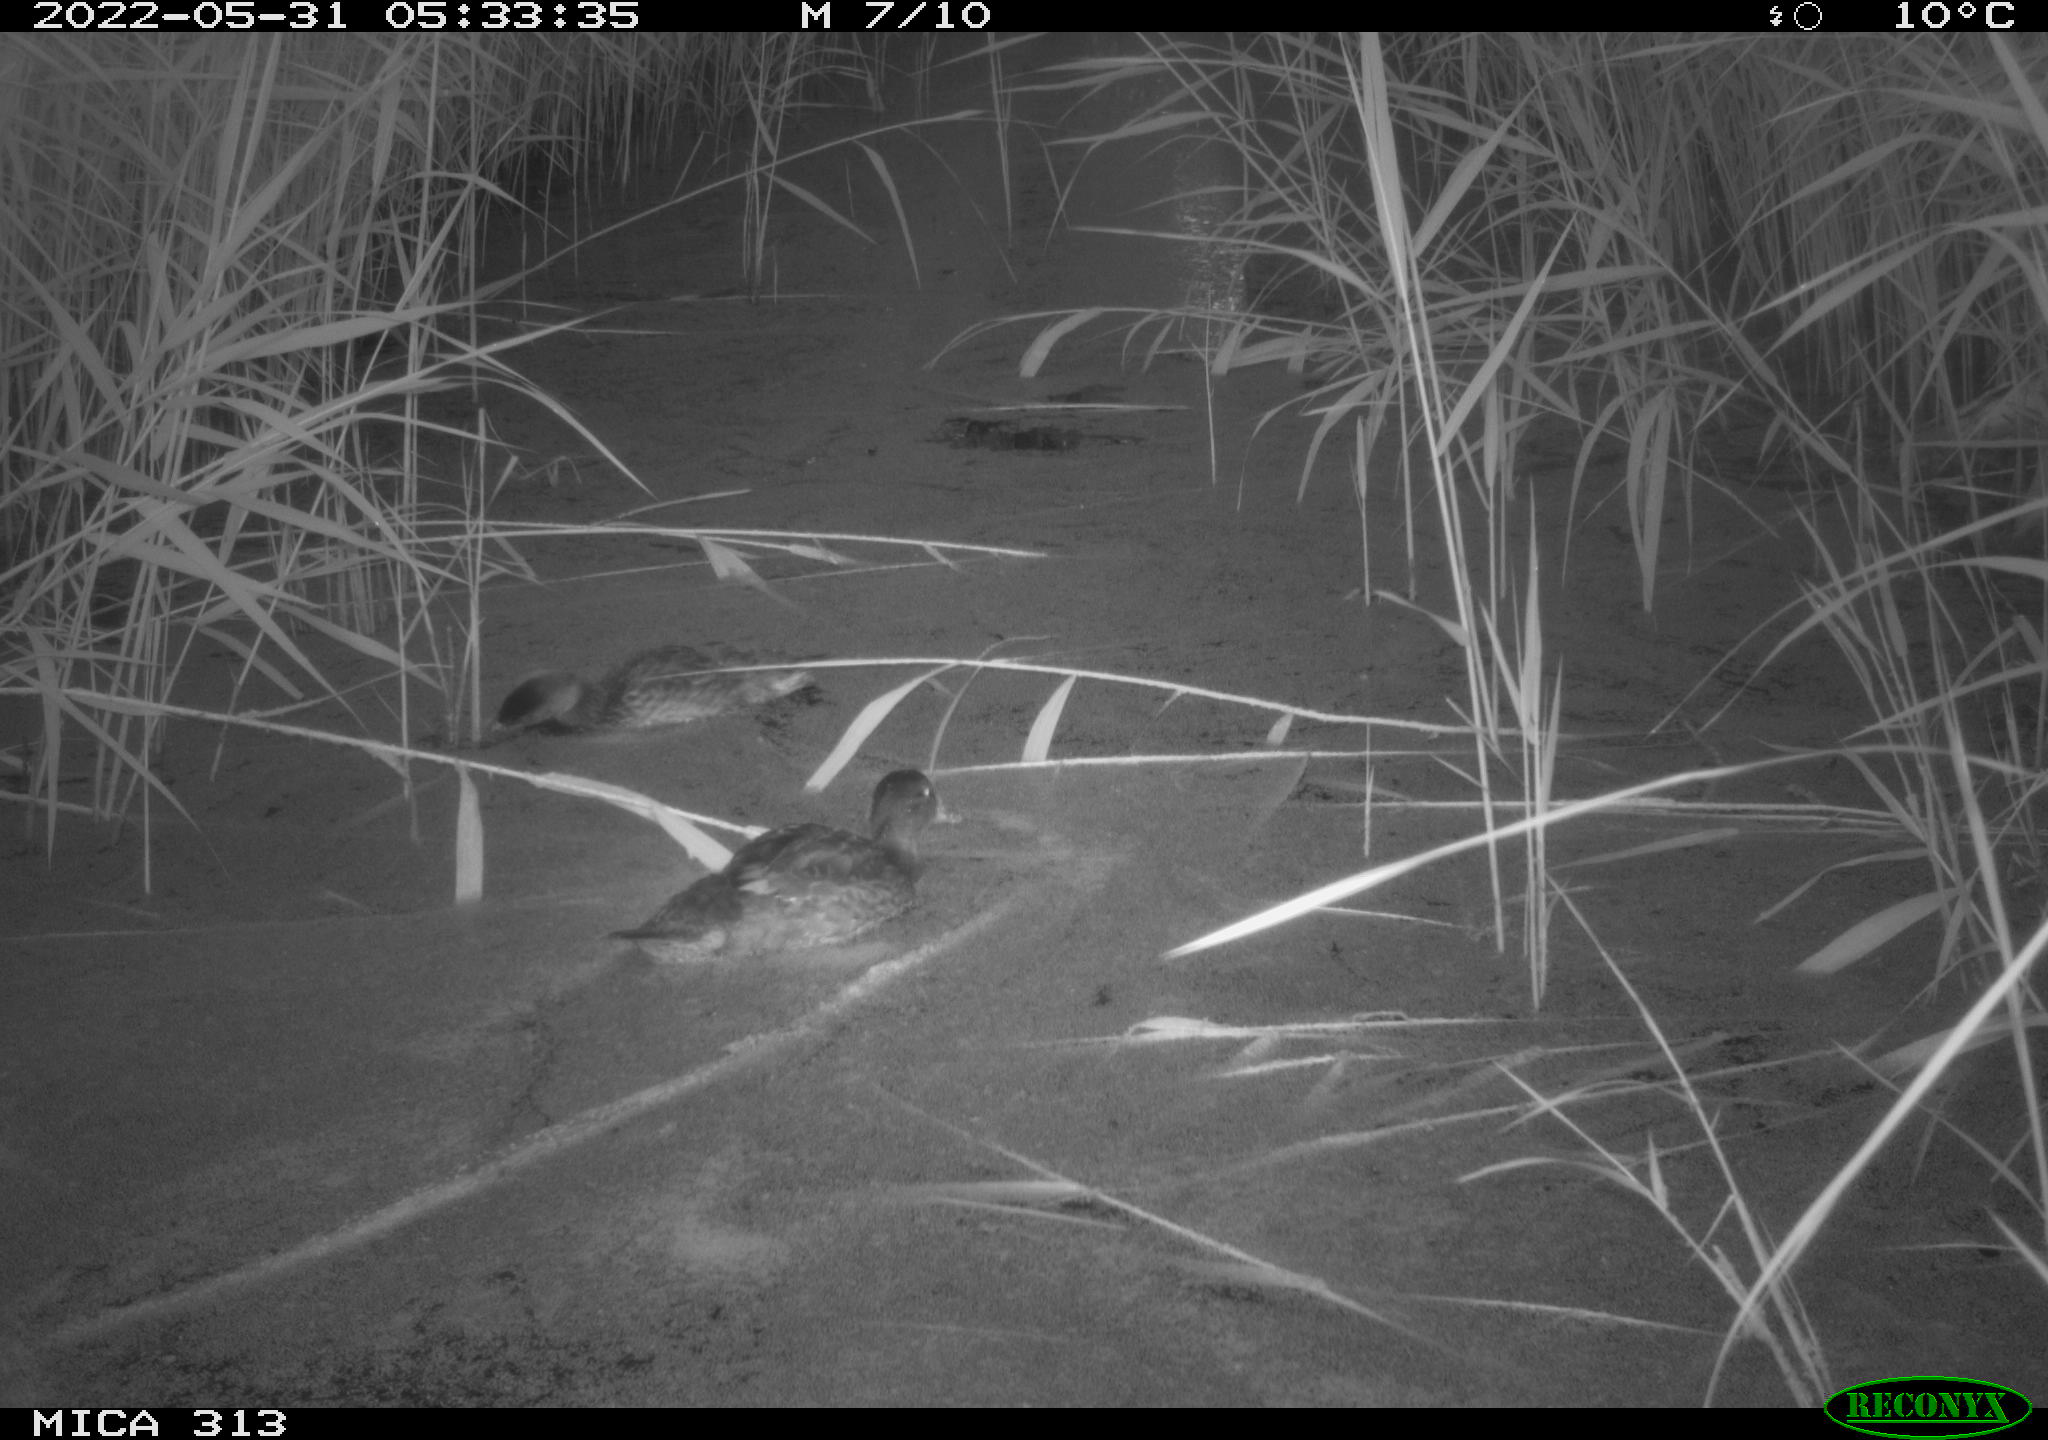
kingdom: Animalia
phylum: Chordata
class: Aves
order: Anseriformes
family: Anatidae
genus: Anas
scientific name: Anas platyrhynchos
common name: Mallard
